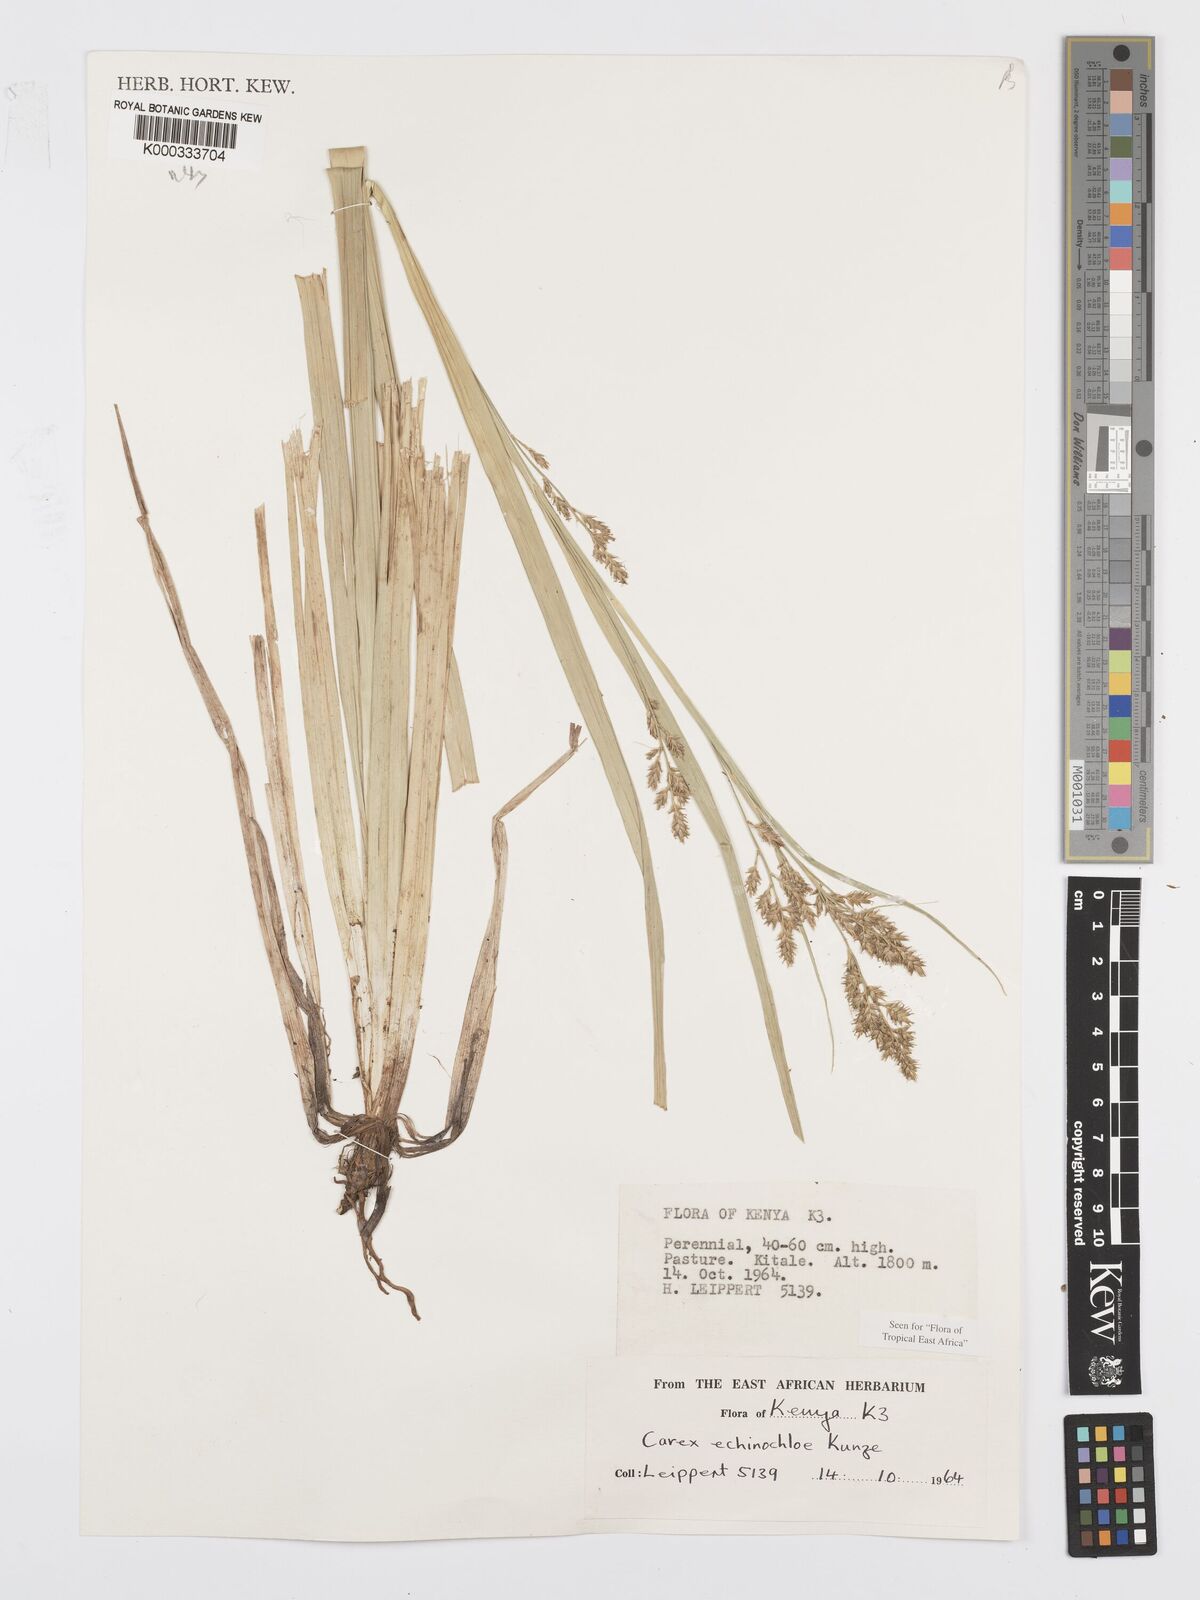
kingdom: Plantae
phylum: Tracheophyta
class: Liliopsida
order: Poales
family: Cyperaceae
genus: Carex
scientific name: Carex echinochloe
